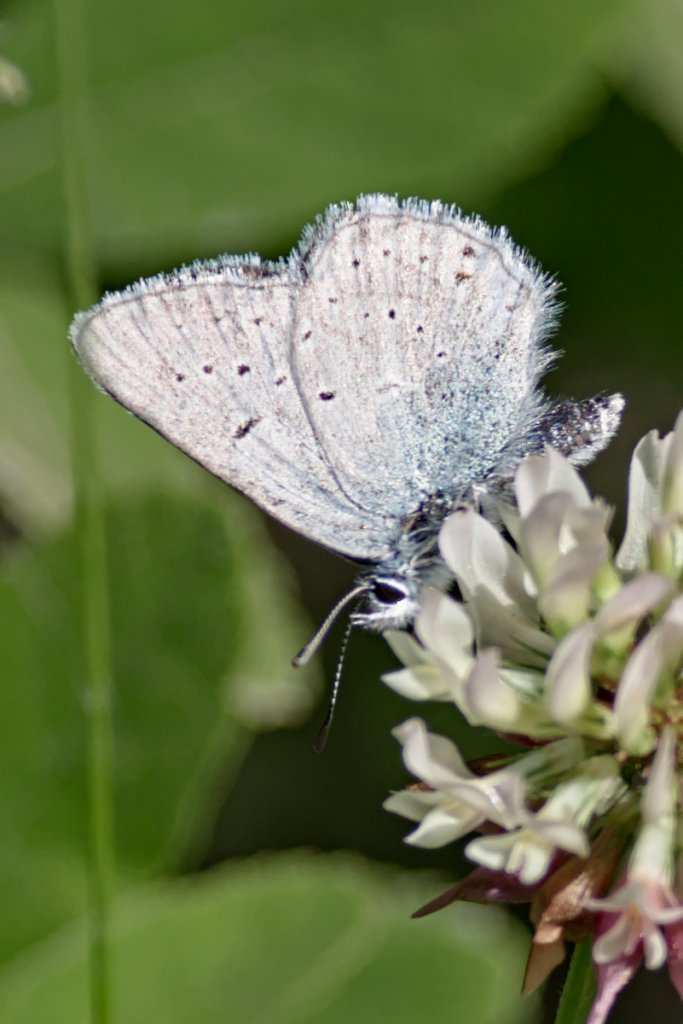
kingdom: Animalia
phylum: Arthropoda
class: Insecta
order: Lepidoptera
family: Lycaenidae
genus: Plebejus
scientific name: Plebejus saepiolus
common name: Greenish Blue
